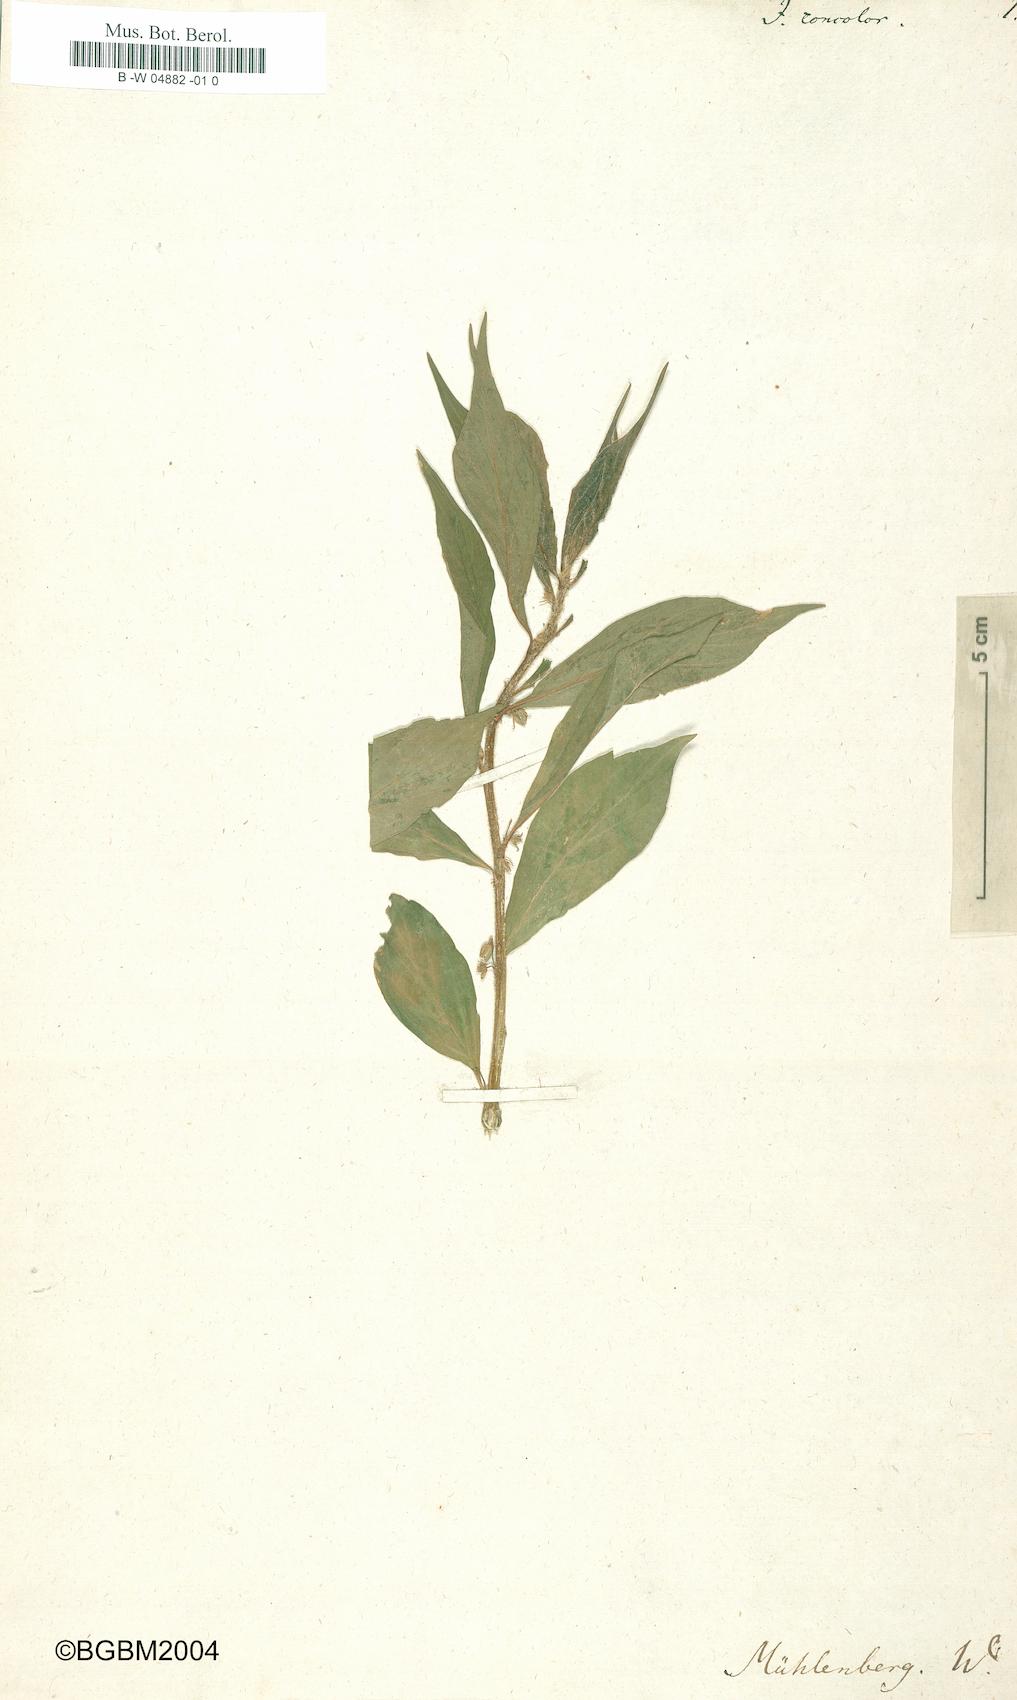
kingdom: Plantae
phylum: Tracheophyta
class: Magnoliopsida
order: Malpighiales
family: Violaceae
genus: Cubelium
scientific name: Cubelium concolor
